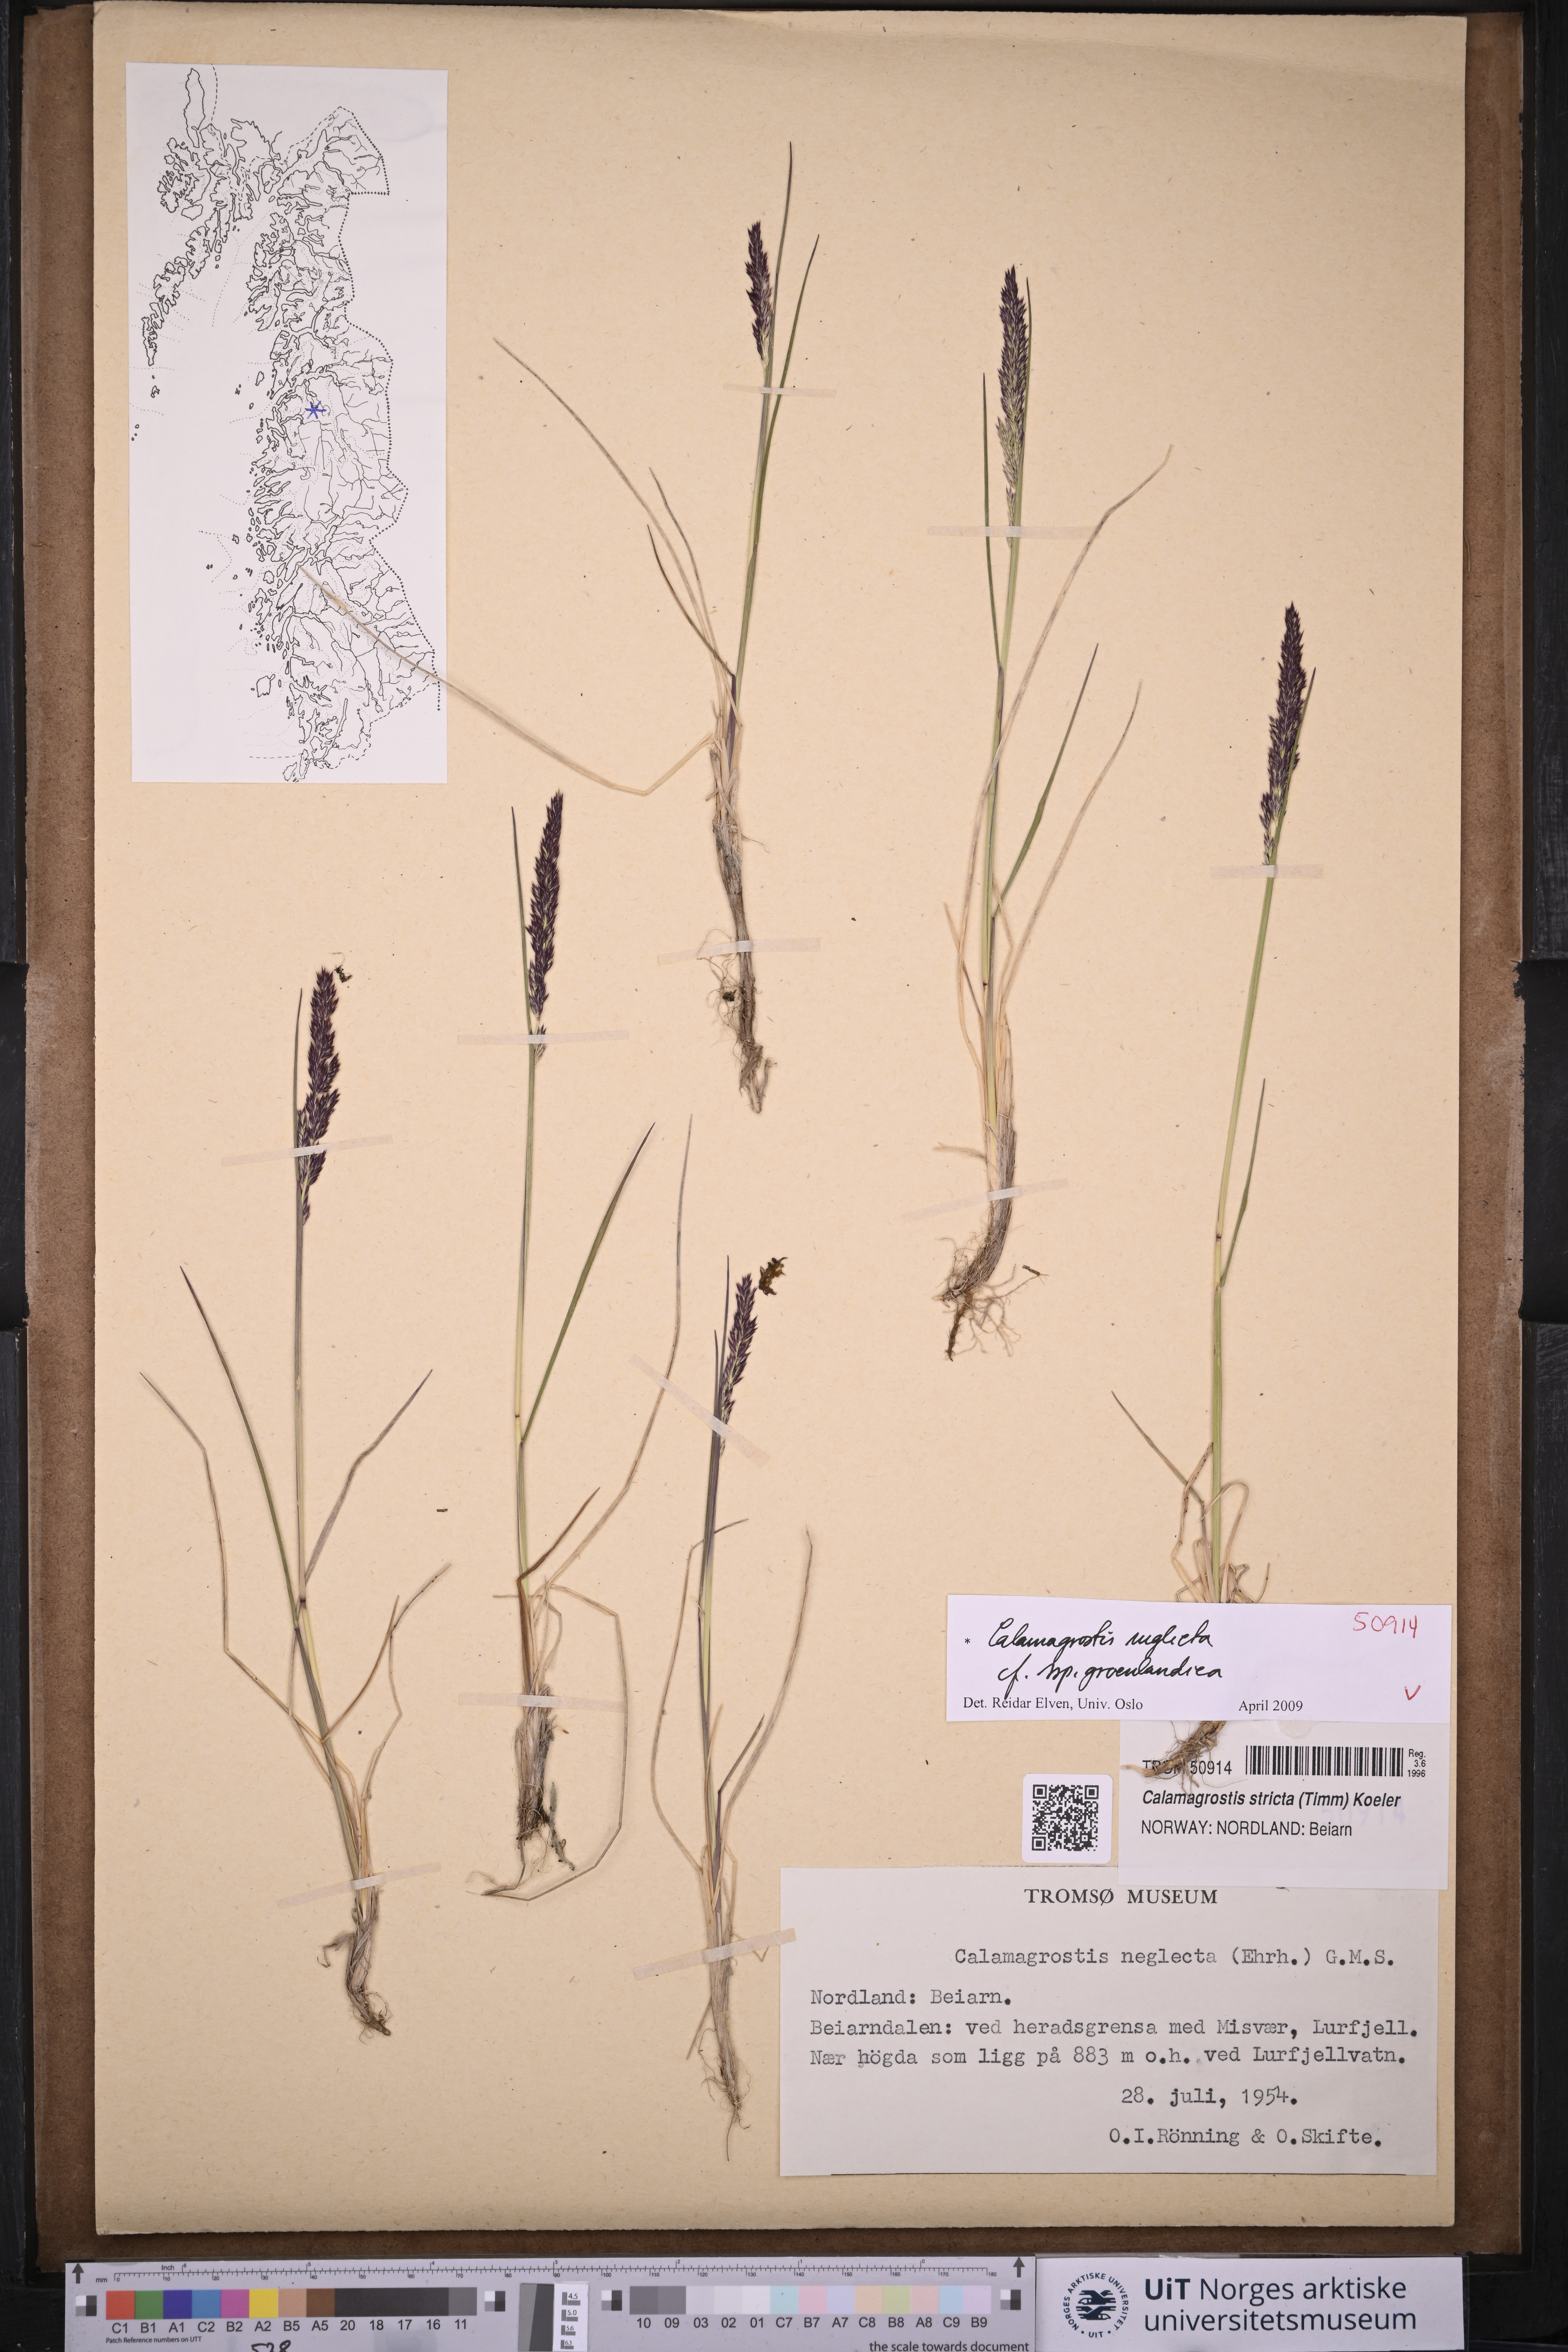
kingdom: Plantae
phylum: Tracheophyta
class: Liliopsida
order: Poales
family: Poaceae
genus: Calamagrostis
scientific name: Calamagrostis stricta
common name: Narrow small-reed
